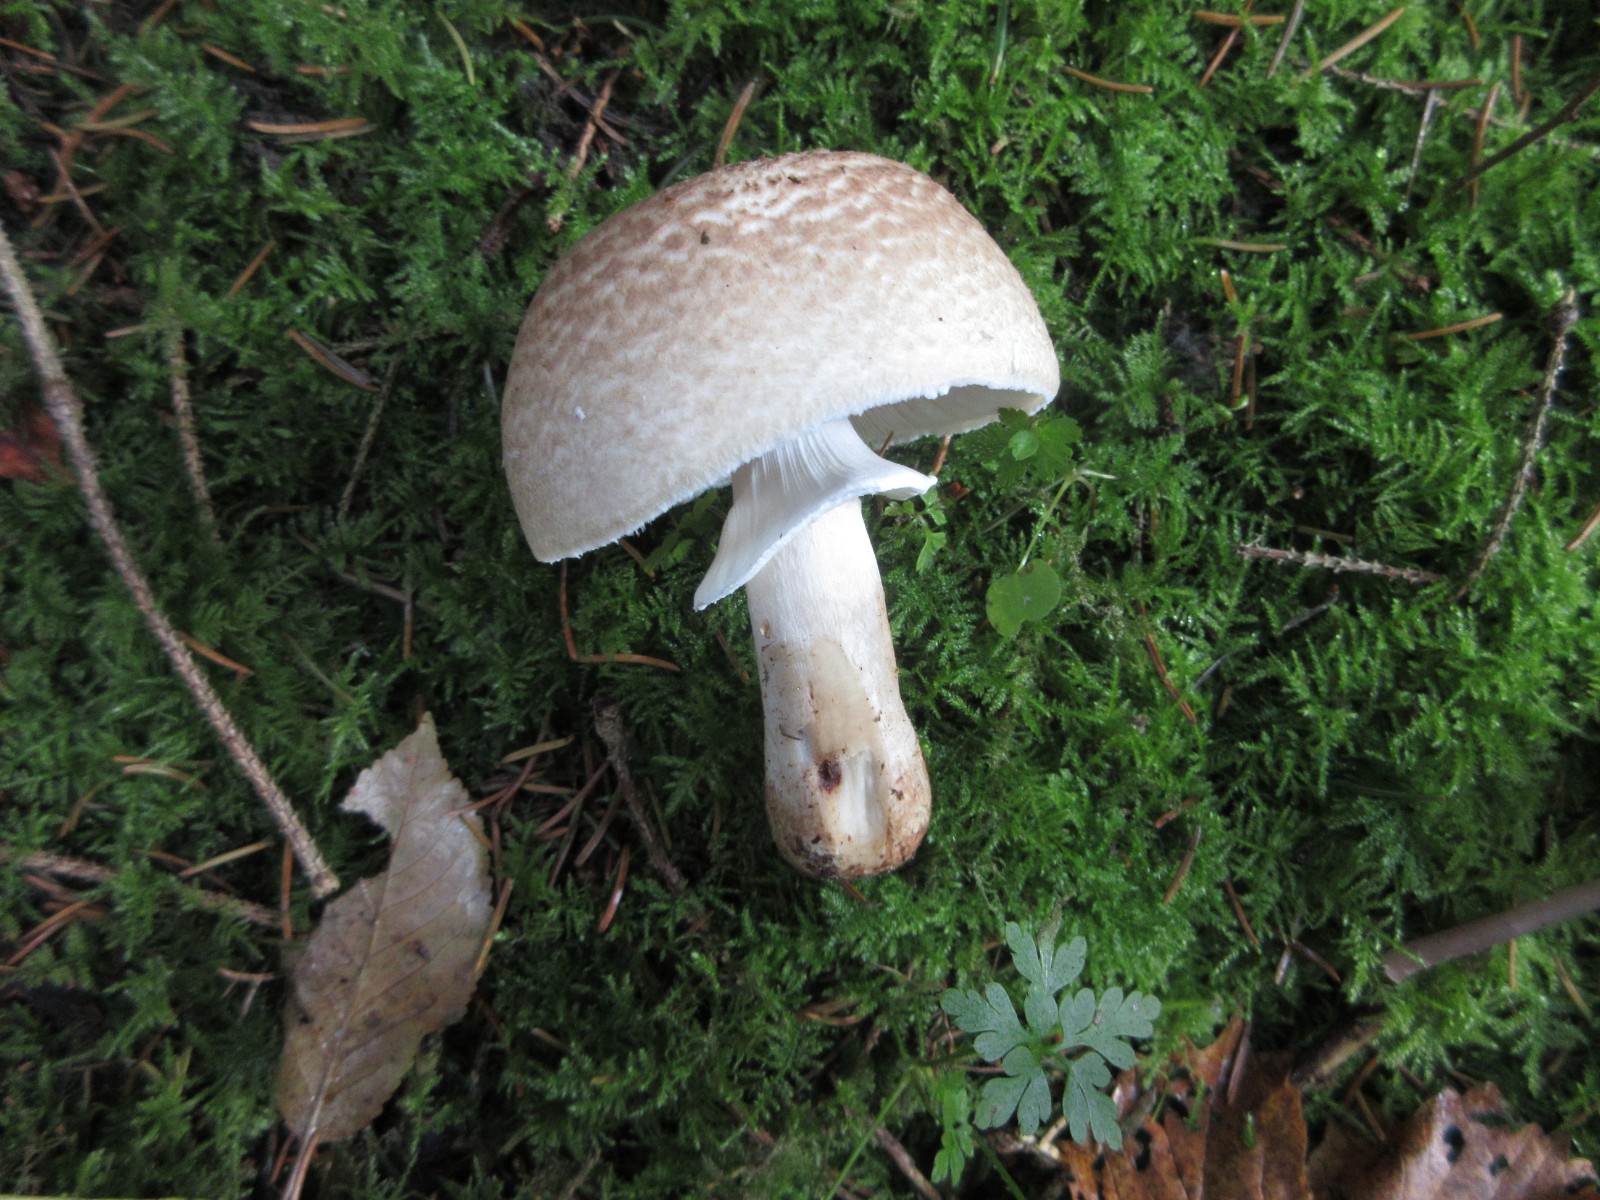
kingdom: Fungi
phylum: Basidiomycota
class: Agaricomycetes
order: Agaricales
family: Agaricaceae
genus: Agaricus
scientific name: Agaricus impudicus
